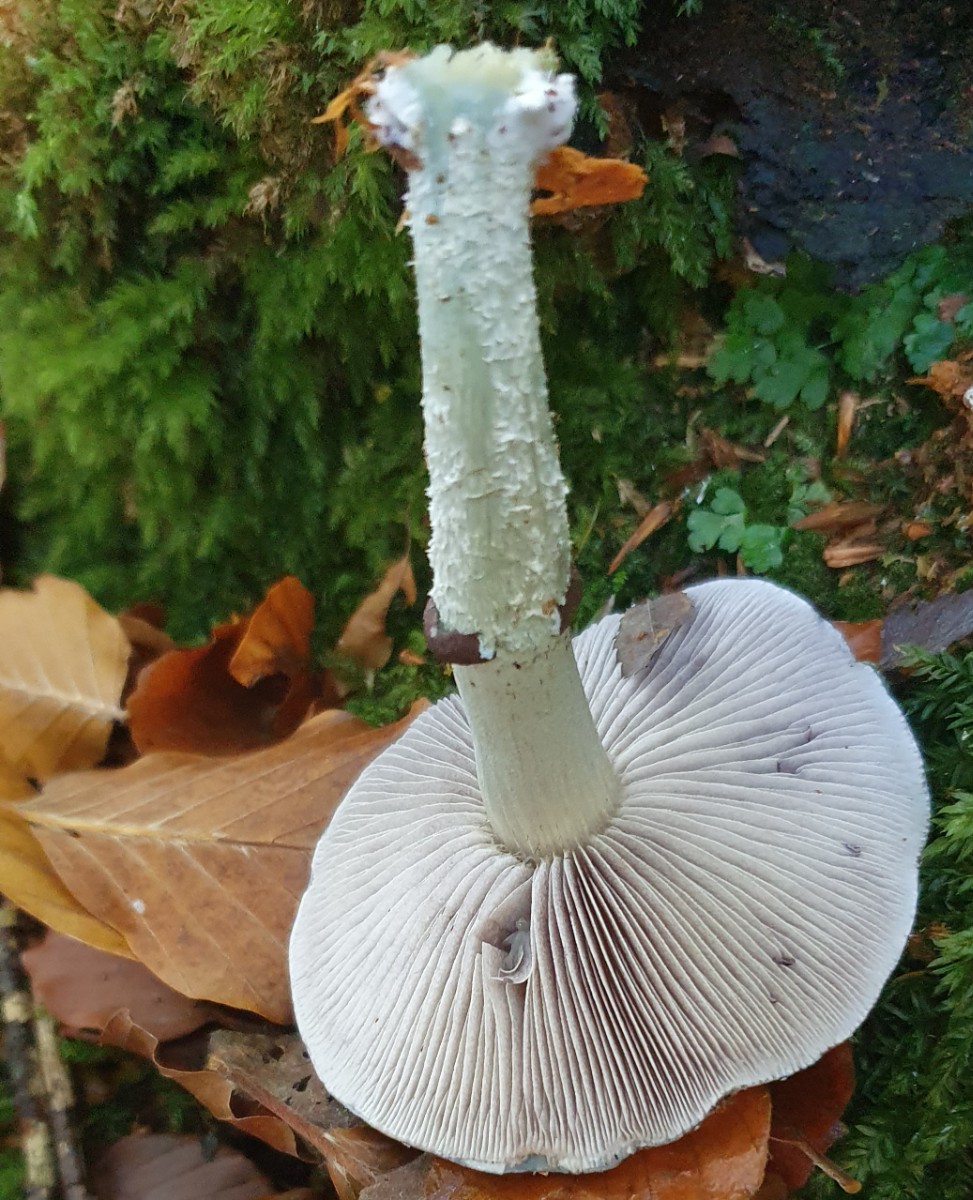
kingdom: Fungi
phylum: Basidiomycota
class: Agaricomycetes
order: Agaricales
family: Strophariaceae
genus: Stropharia
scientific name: Stropharia aeruginosa
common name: spanskgrøn bredblad
